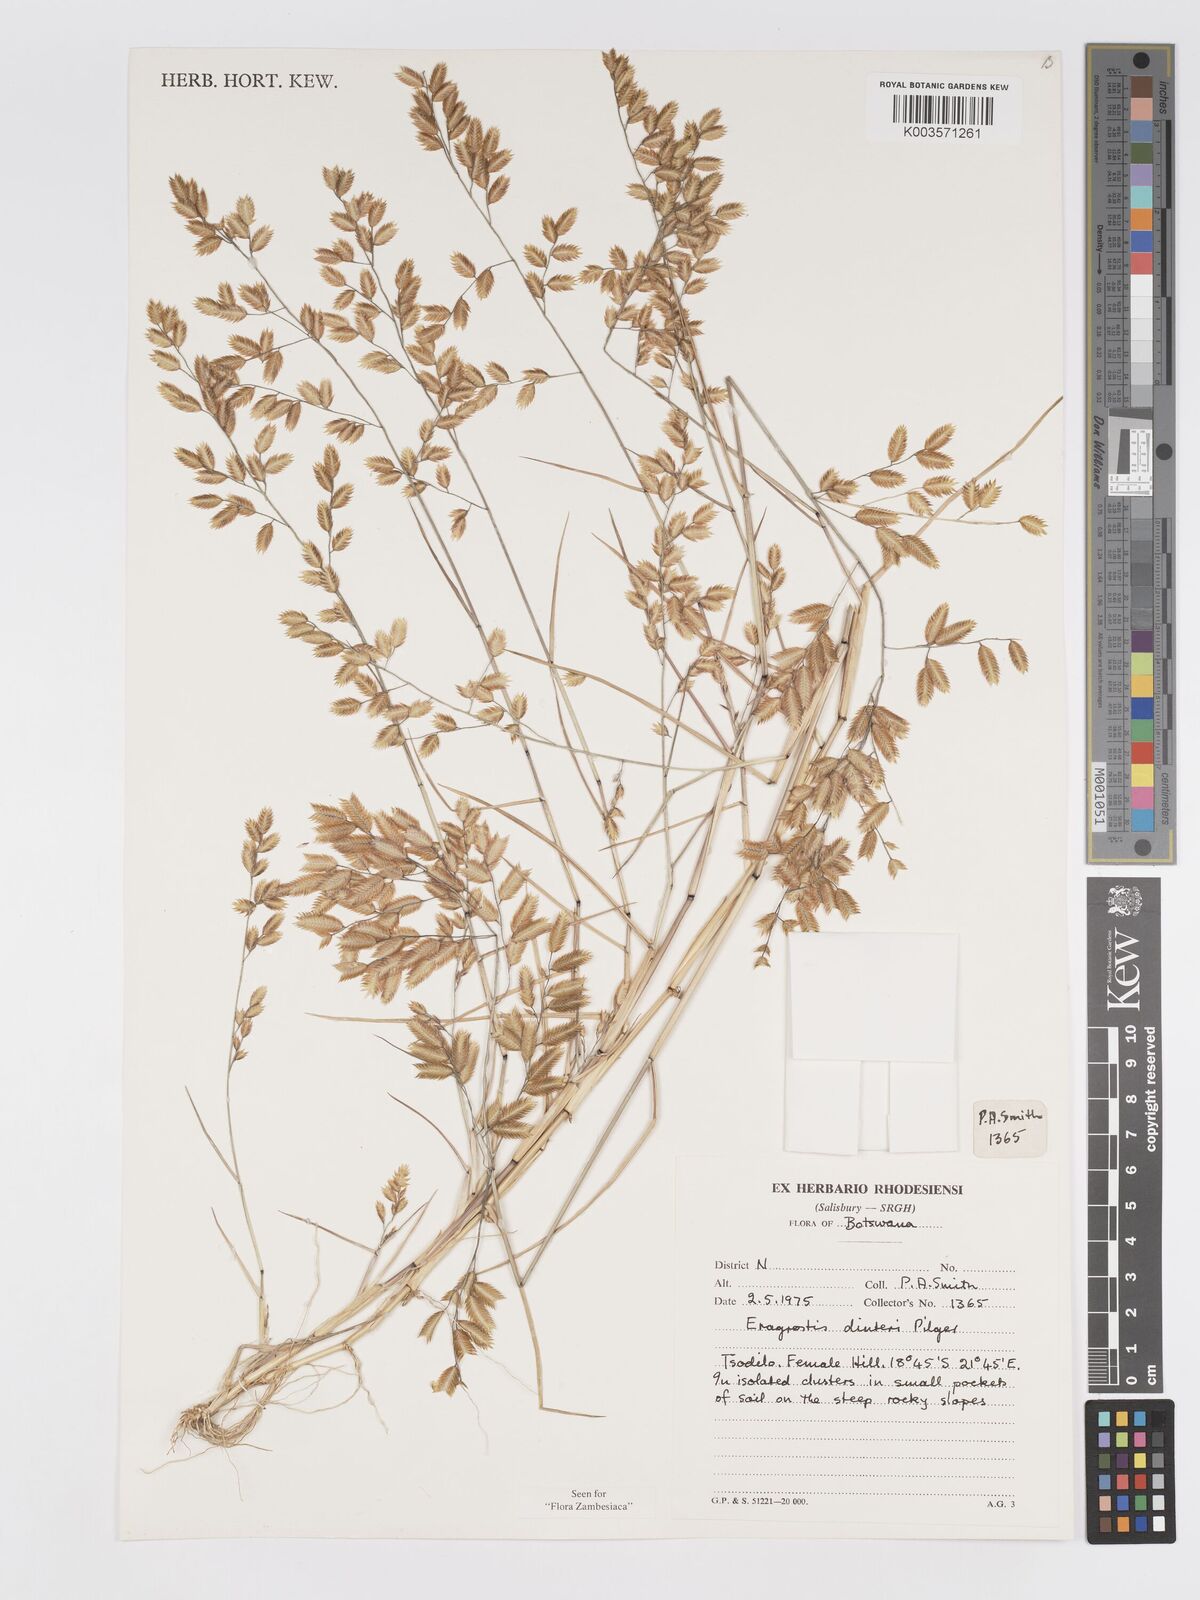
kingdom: Plantae
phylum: Tracheophyta
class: Liliopsida
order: Poales
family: Poaceae
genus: Eragrostis
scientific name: Eragrostis dinteri
